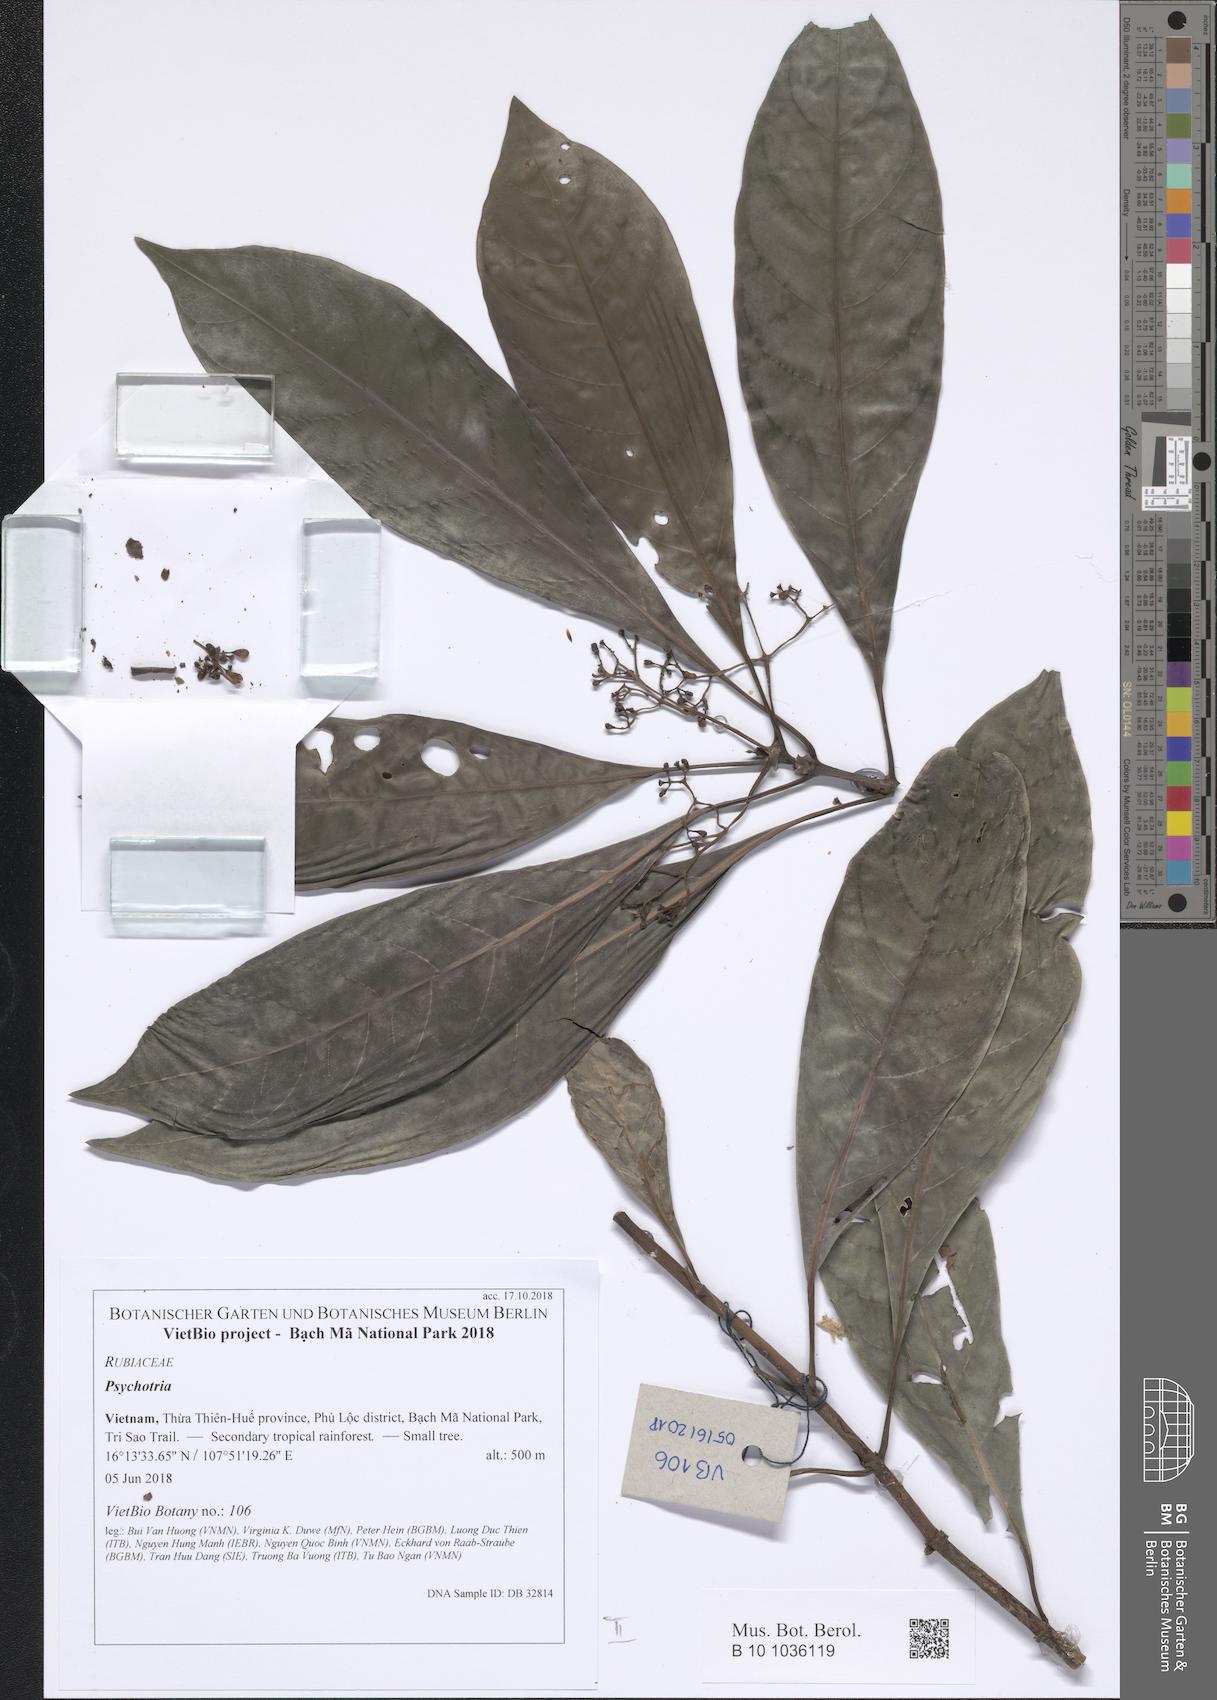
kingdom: Plantae
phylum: Tracheophyta
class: Magnoliopsida
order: Gentianales
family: Rubiaceae
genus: Eumachia
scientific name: Eumachia montana
